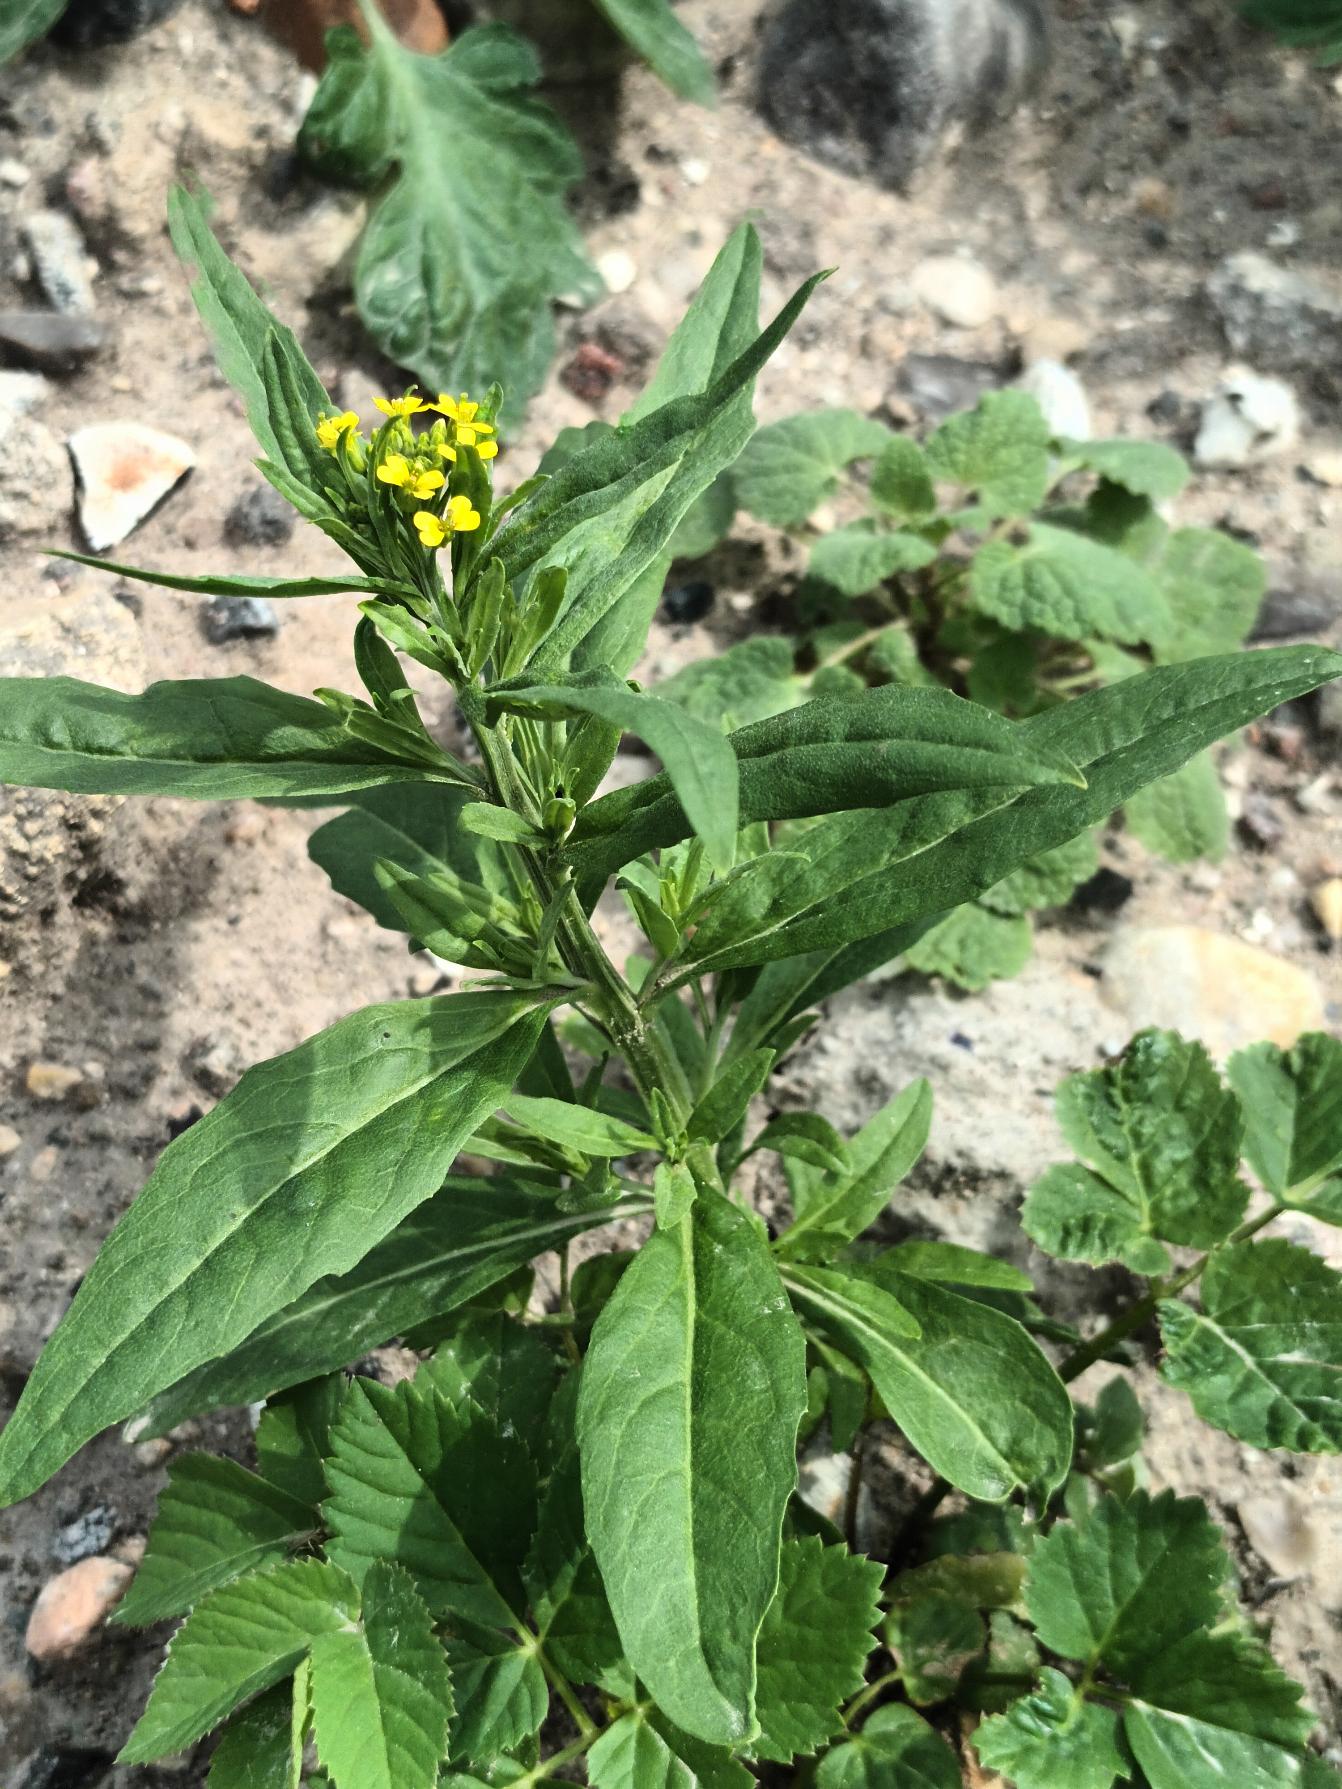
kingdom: Plantae
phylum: Tracheophyta
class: Magnoliopsida
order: Brassicales
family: Brassicaceae
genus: Erysimum
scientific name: Erysimum cheiranthoides
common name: Gyldenlak-hjørneklap
